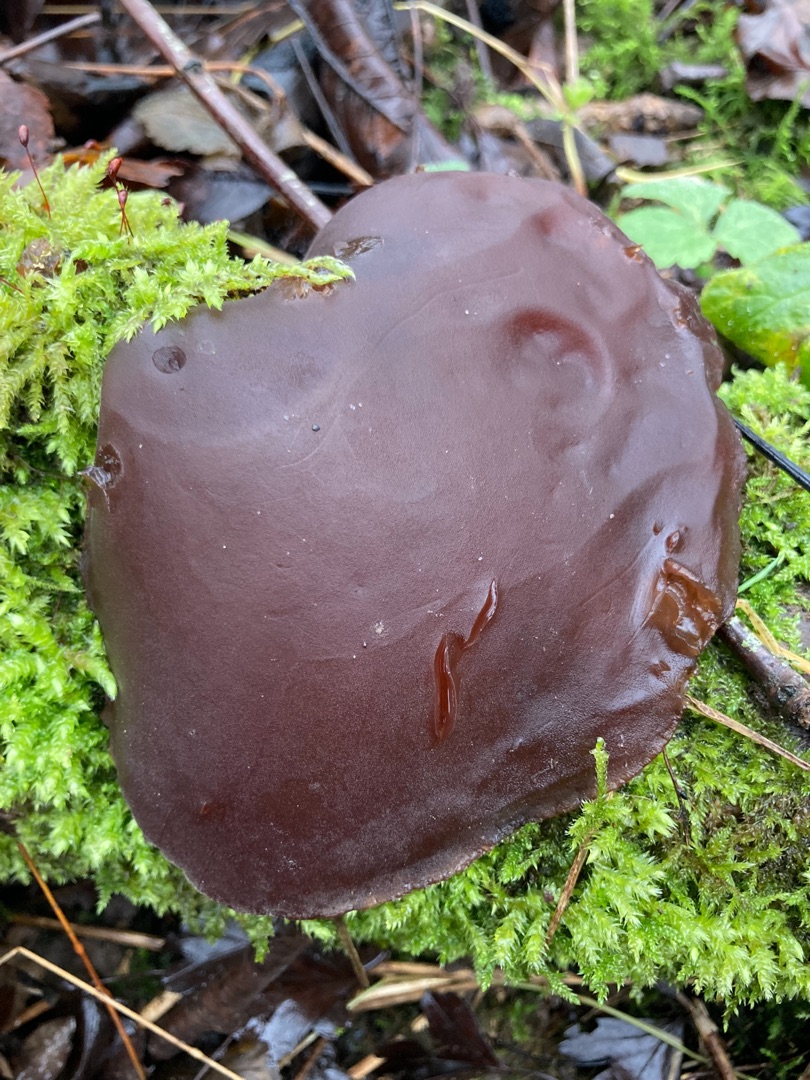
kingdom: Fungi
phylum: Basidiomycota
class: Agaricomycetes
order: Auriculariales
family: Auriculariaceae
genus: Auricularia
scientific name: Auricularia auricula-judae
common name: Almindelig judasøre
